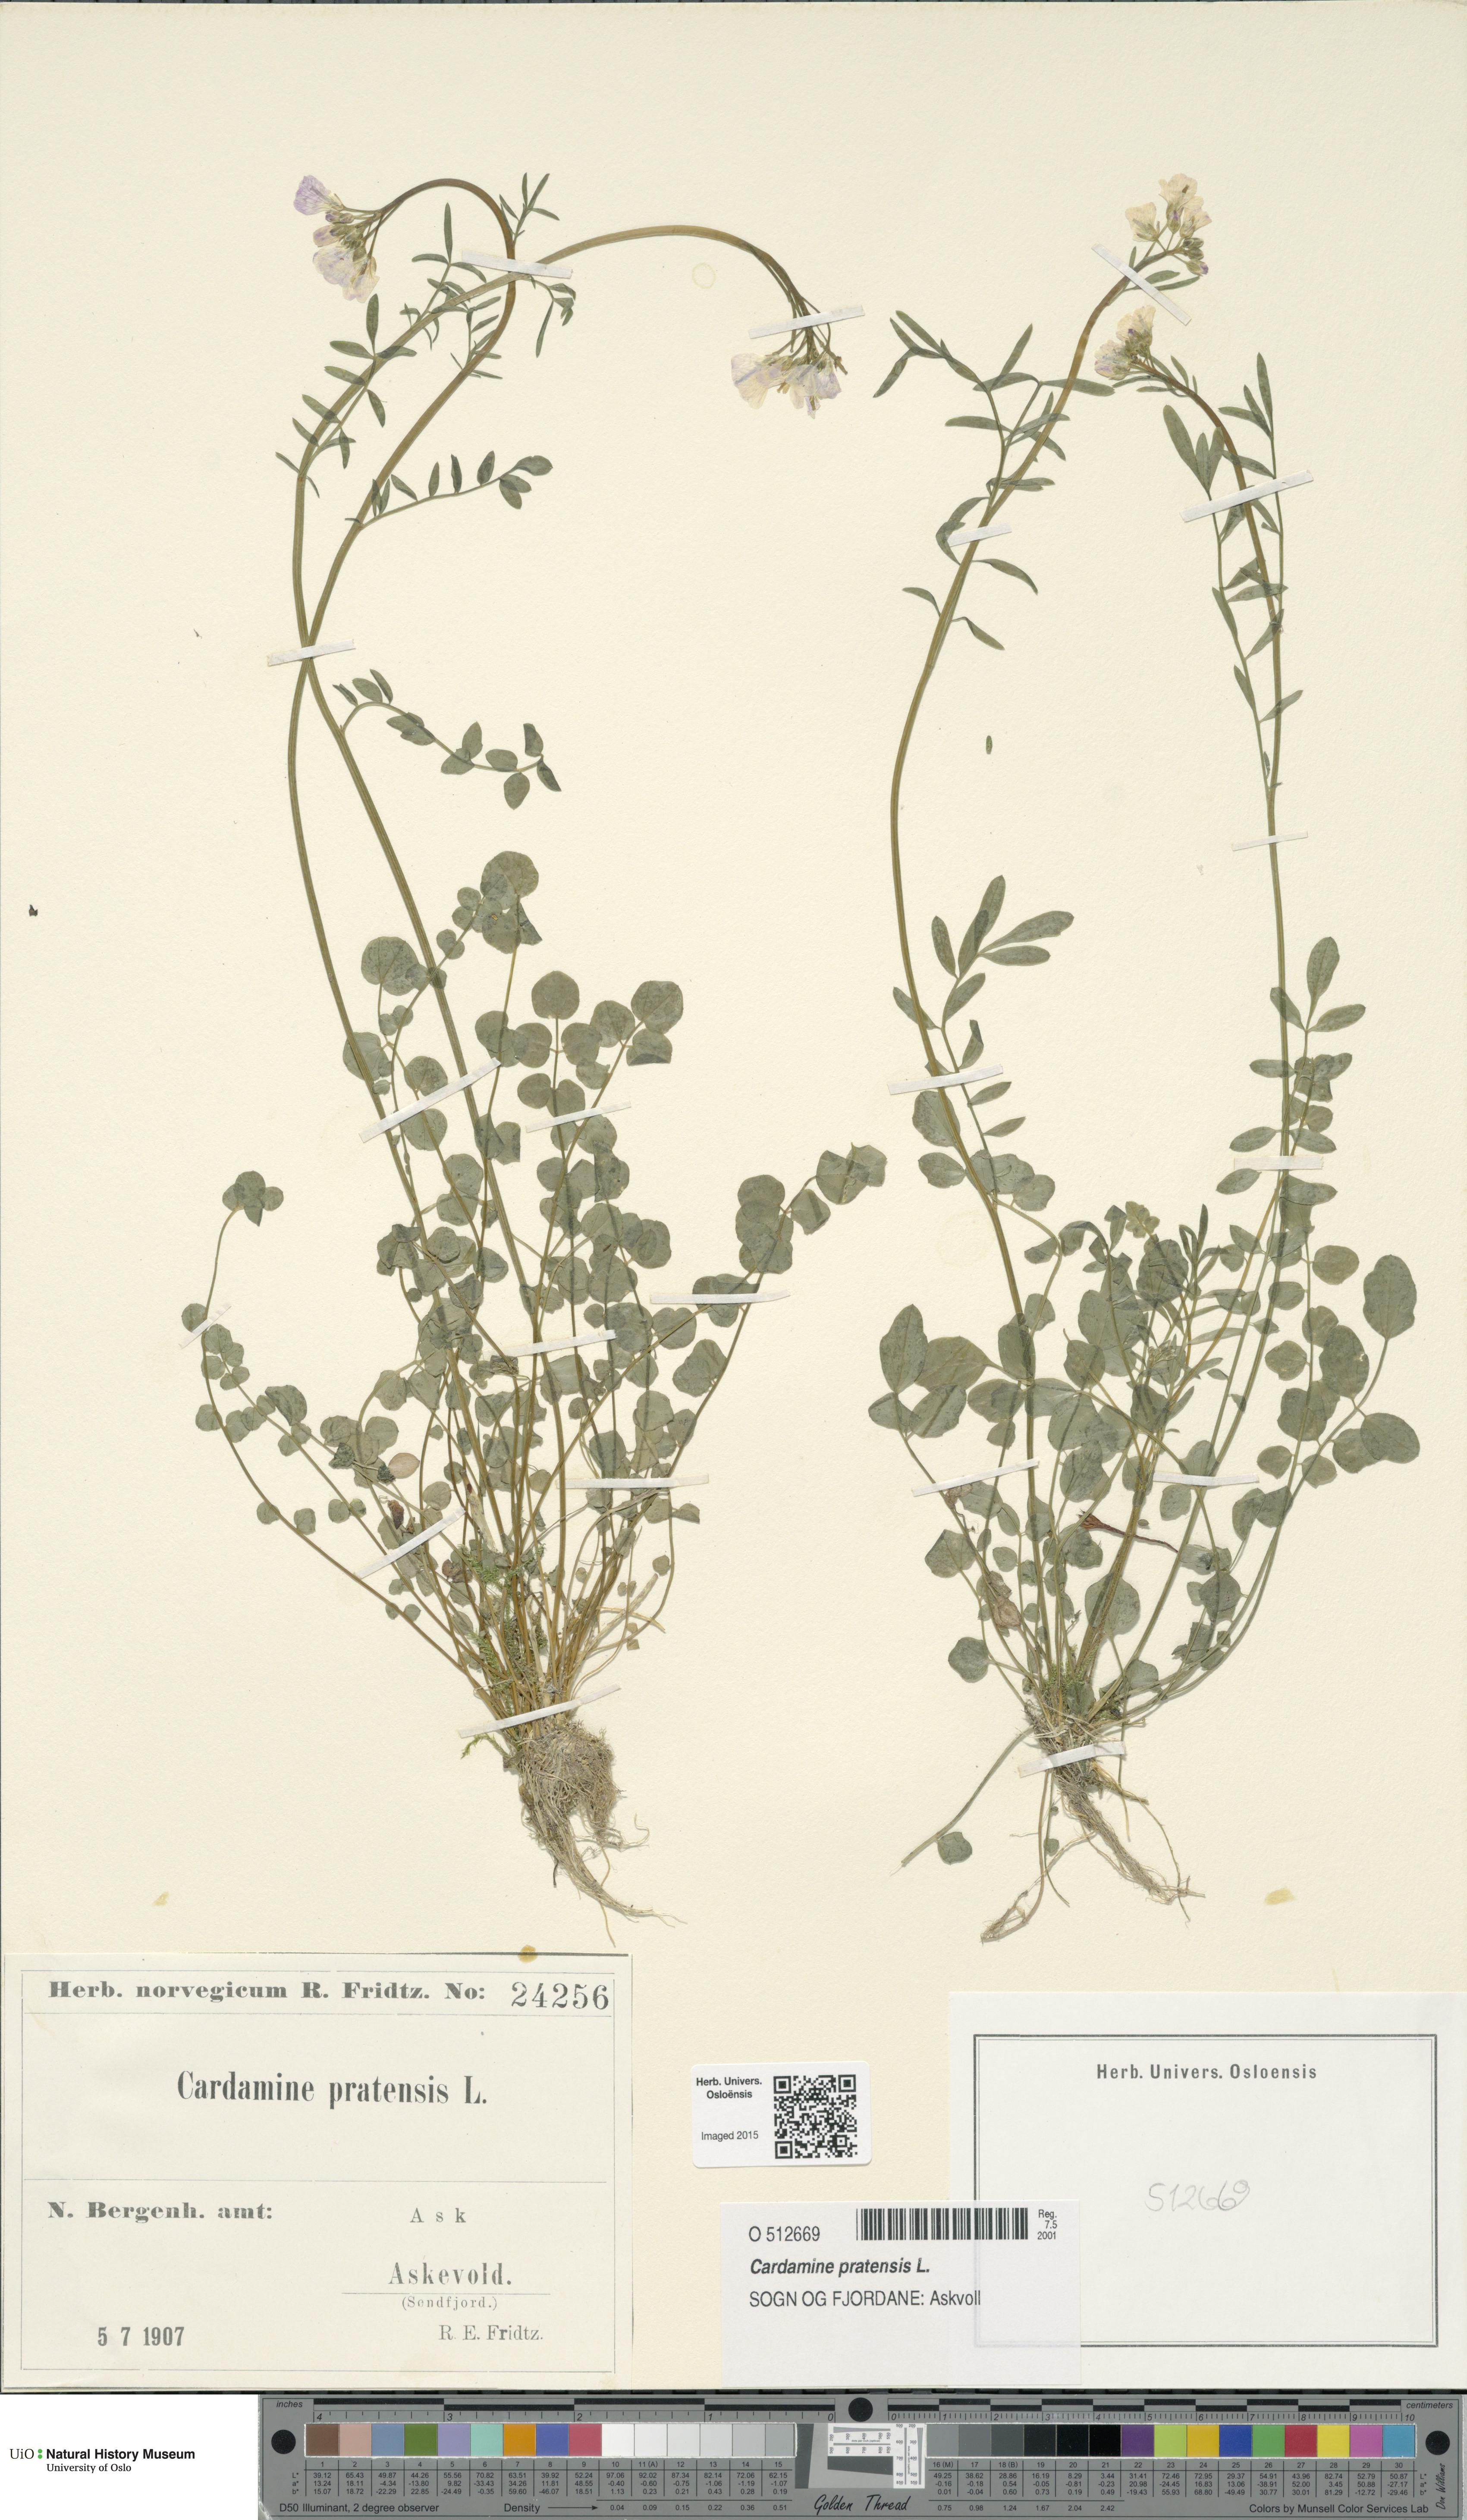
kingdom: Plantae
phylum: Tracheophyta
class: Magnoliopsida
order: Brassicales
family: Brassicaceae
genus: Cardamine
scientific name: Cardamine pratensis
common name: Cuckoo flower
